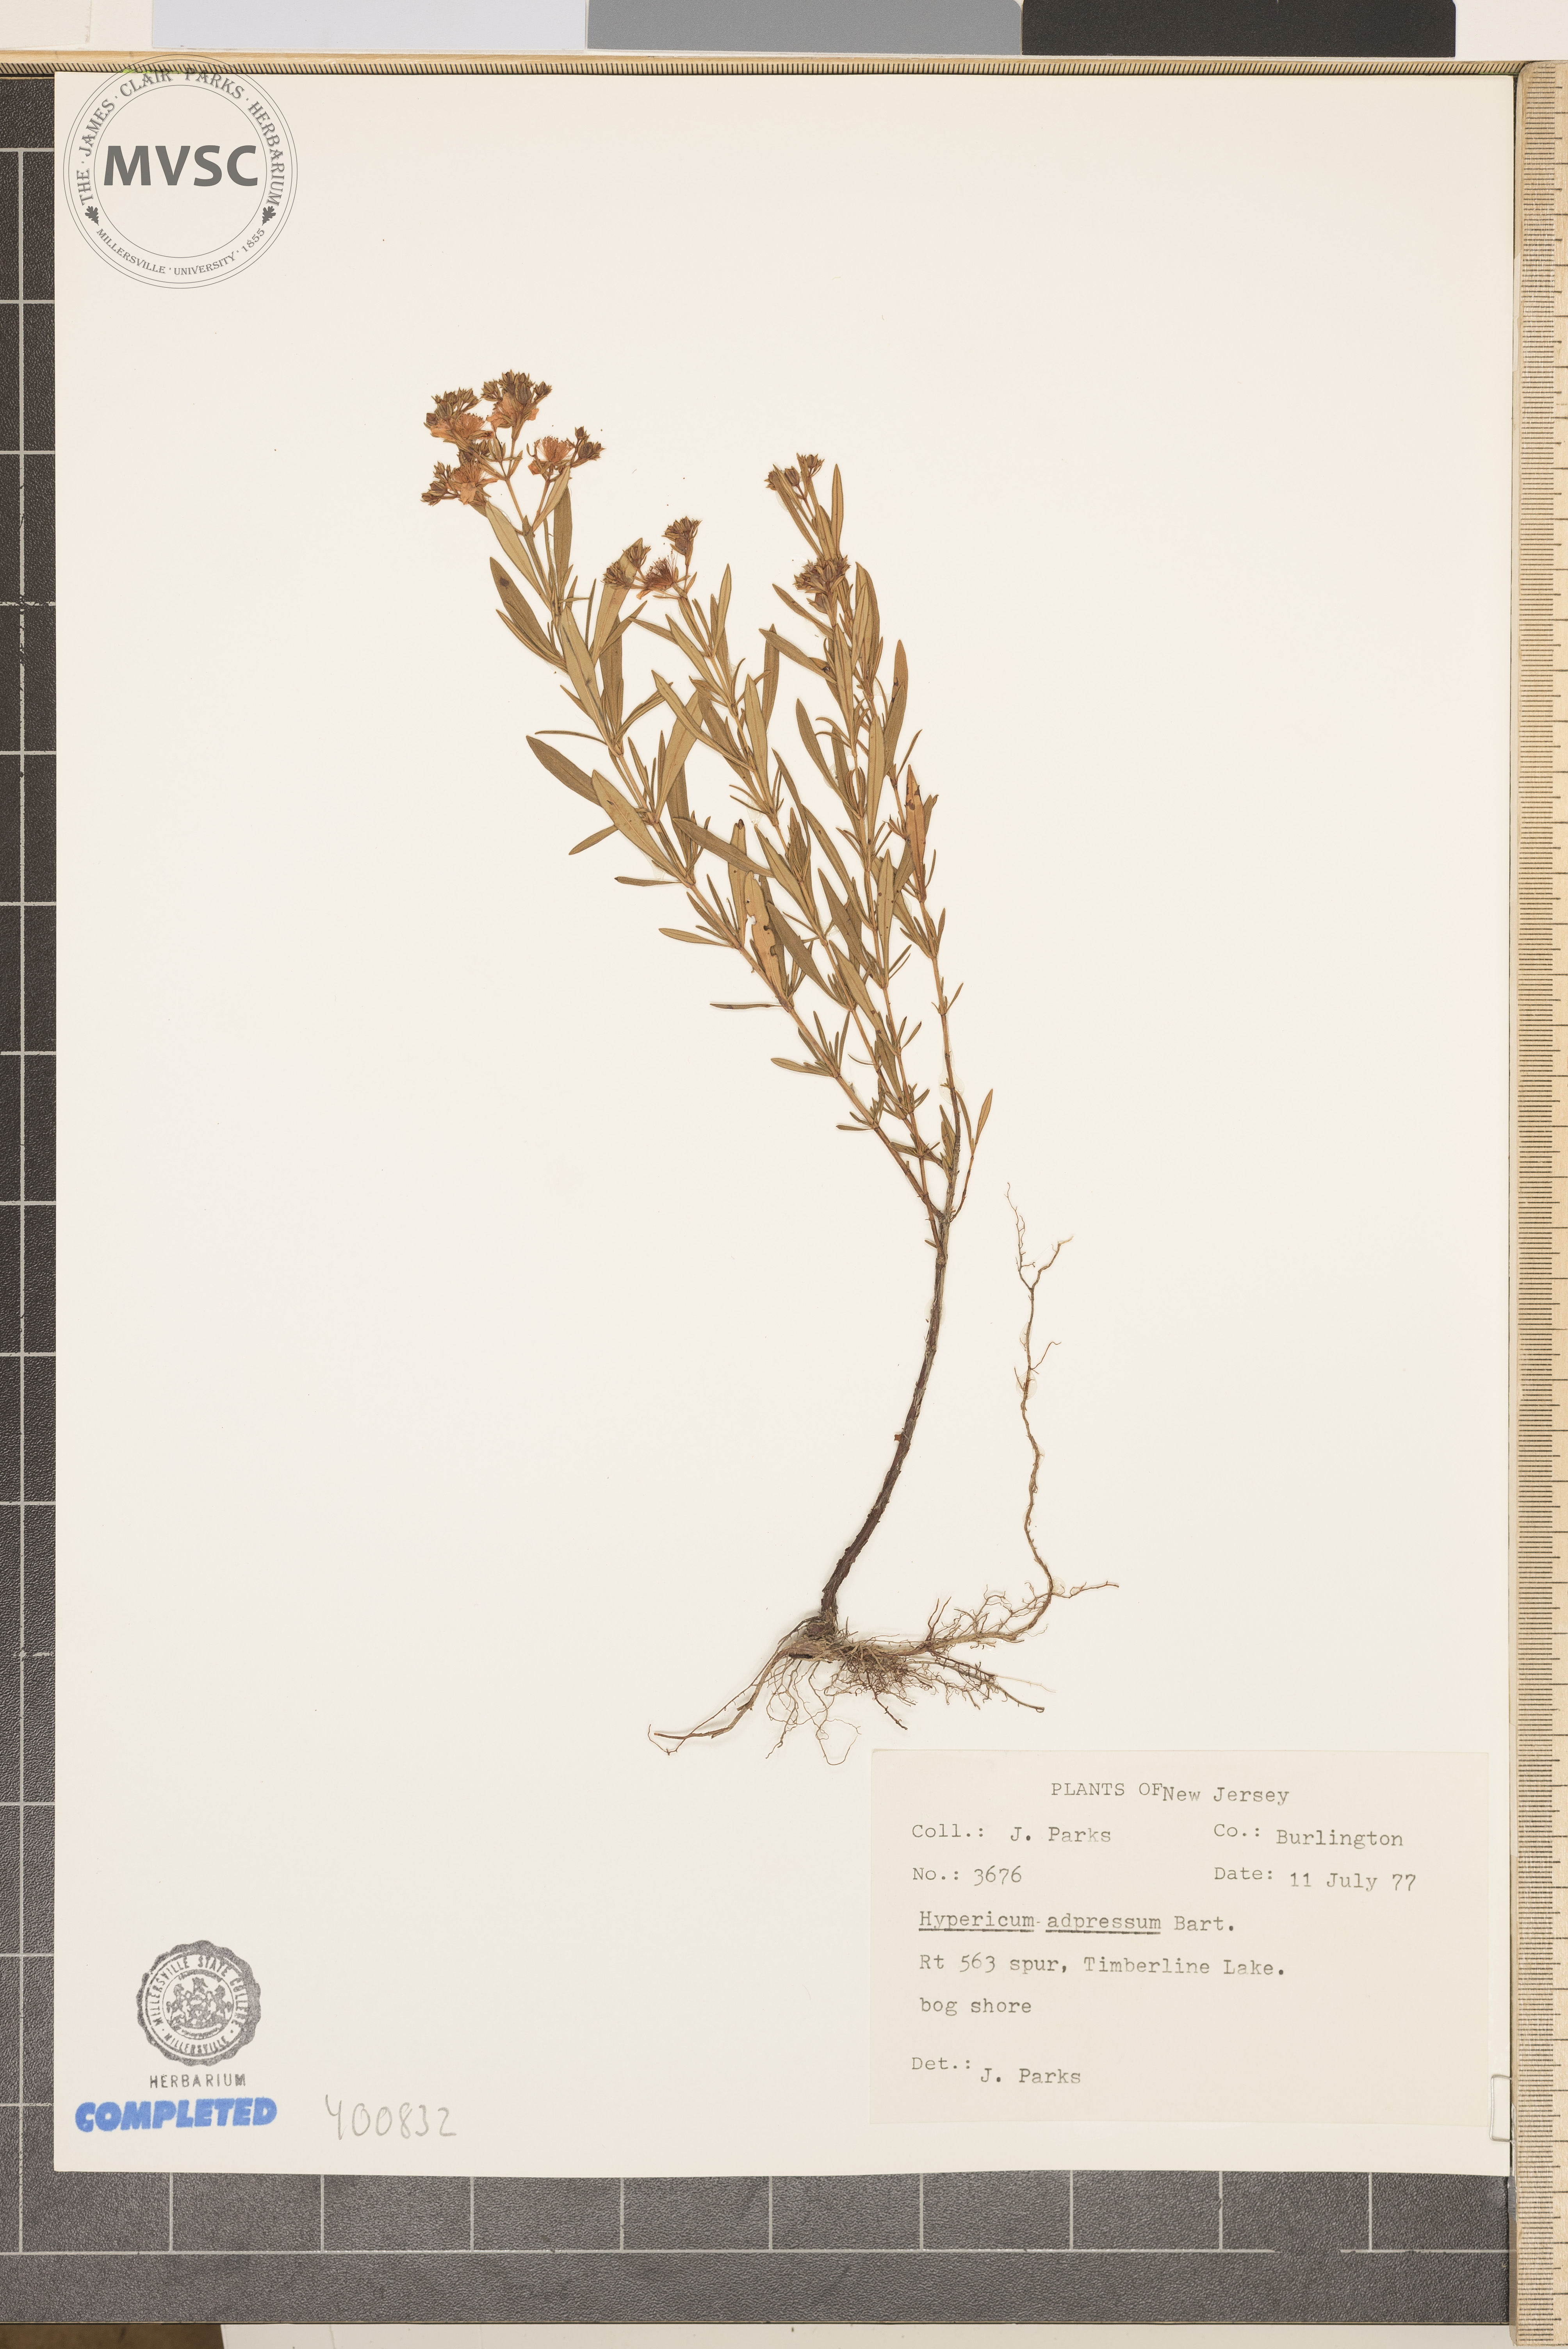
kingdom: Plantae
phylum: Tracheophyta
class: Magnoliopsida
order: Malpighiales
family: Hypericaceae
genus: Hypericum
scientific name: Hypericum adpressum
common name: Creeping St. John's-wort
